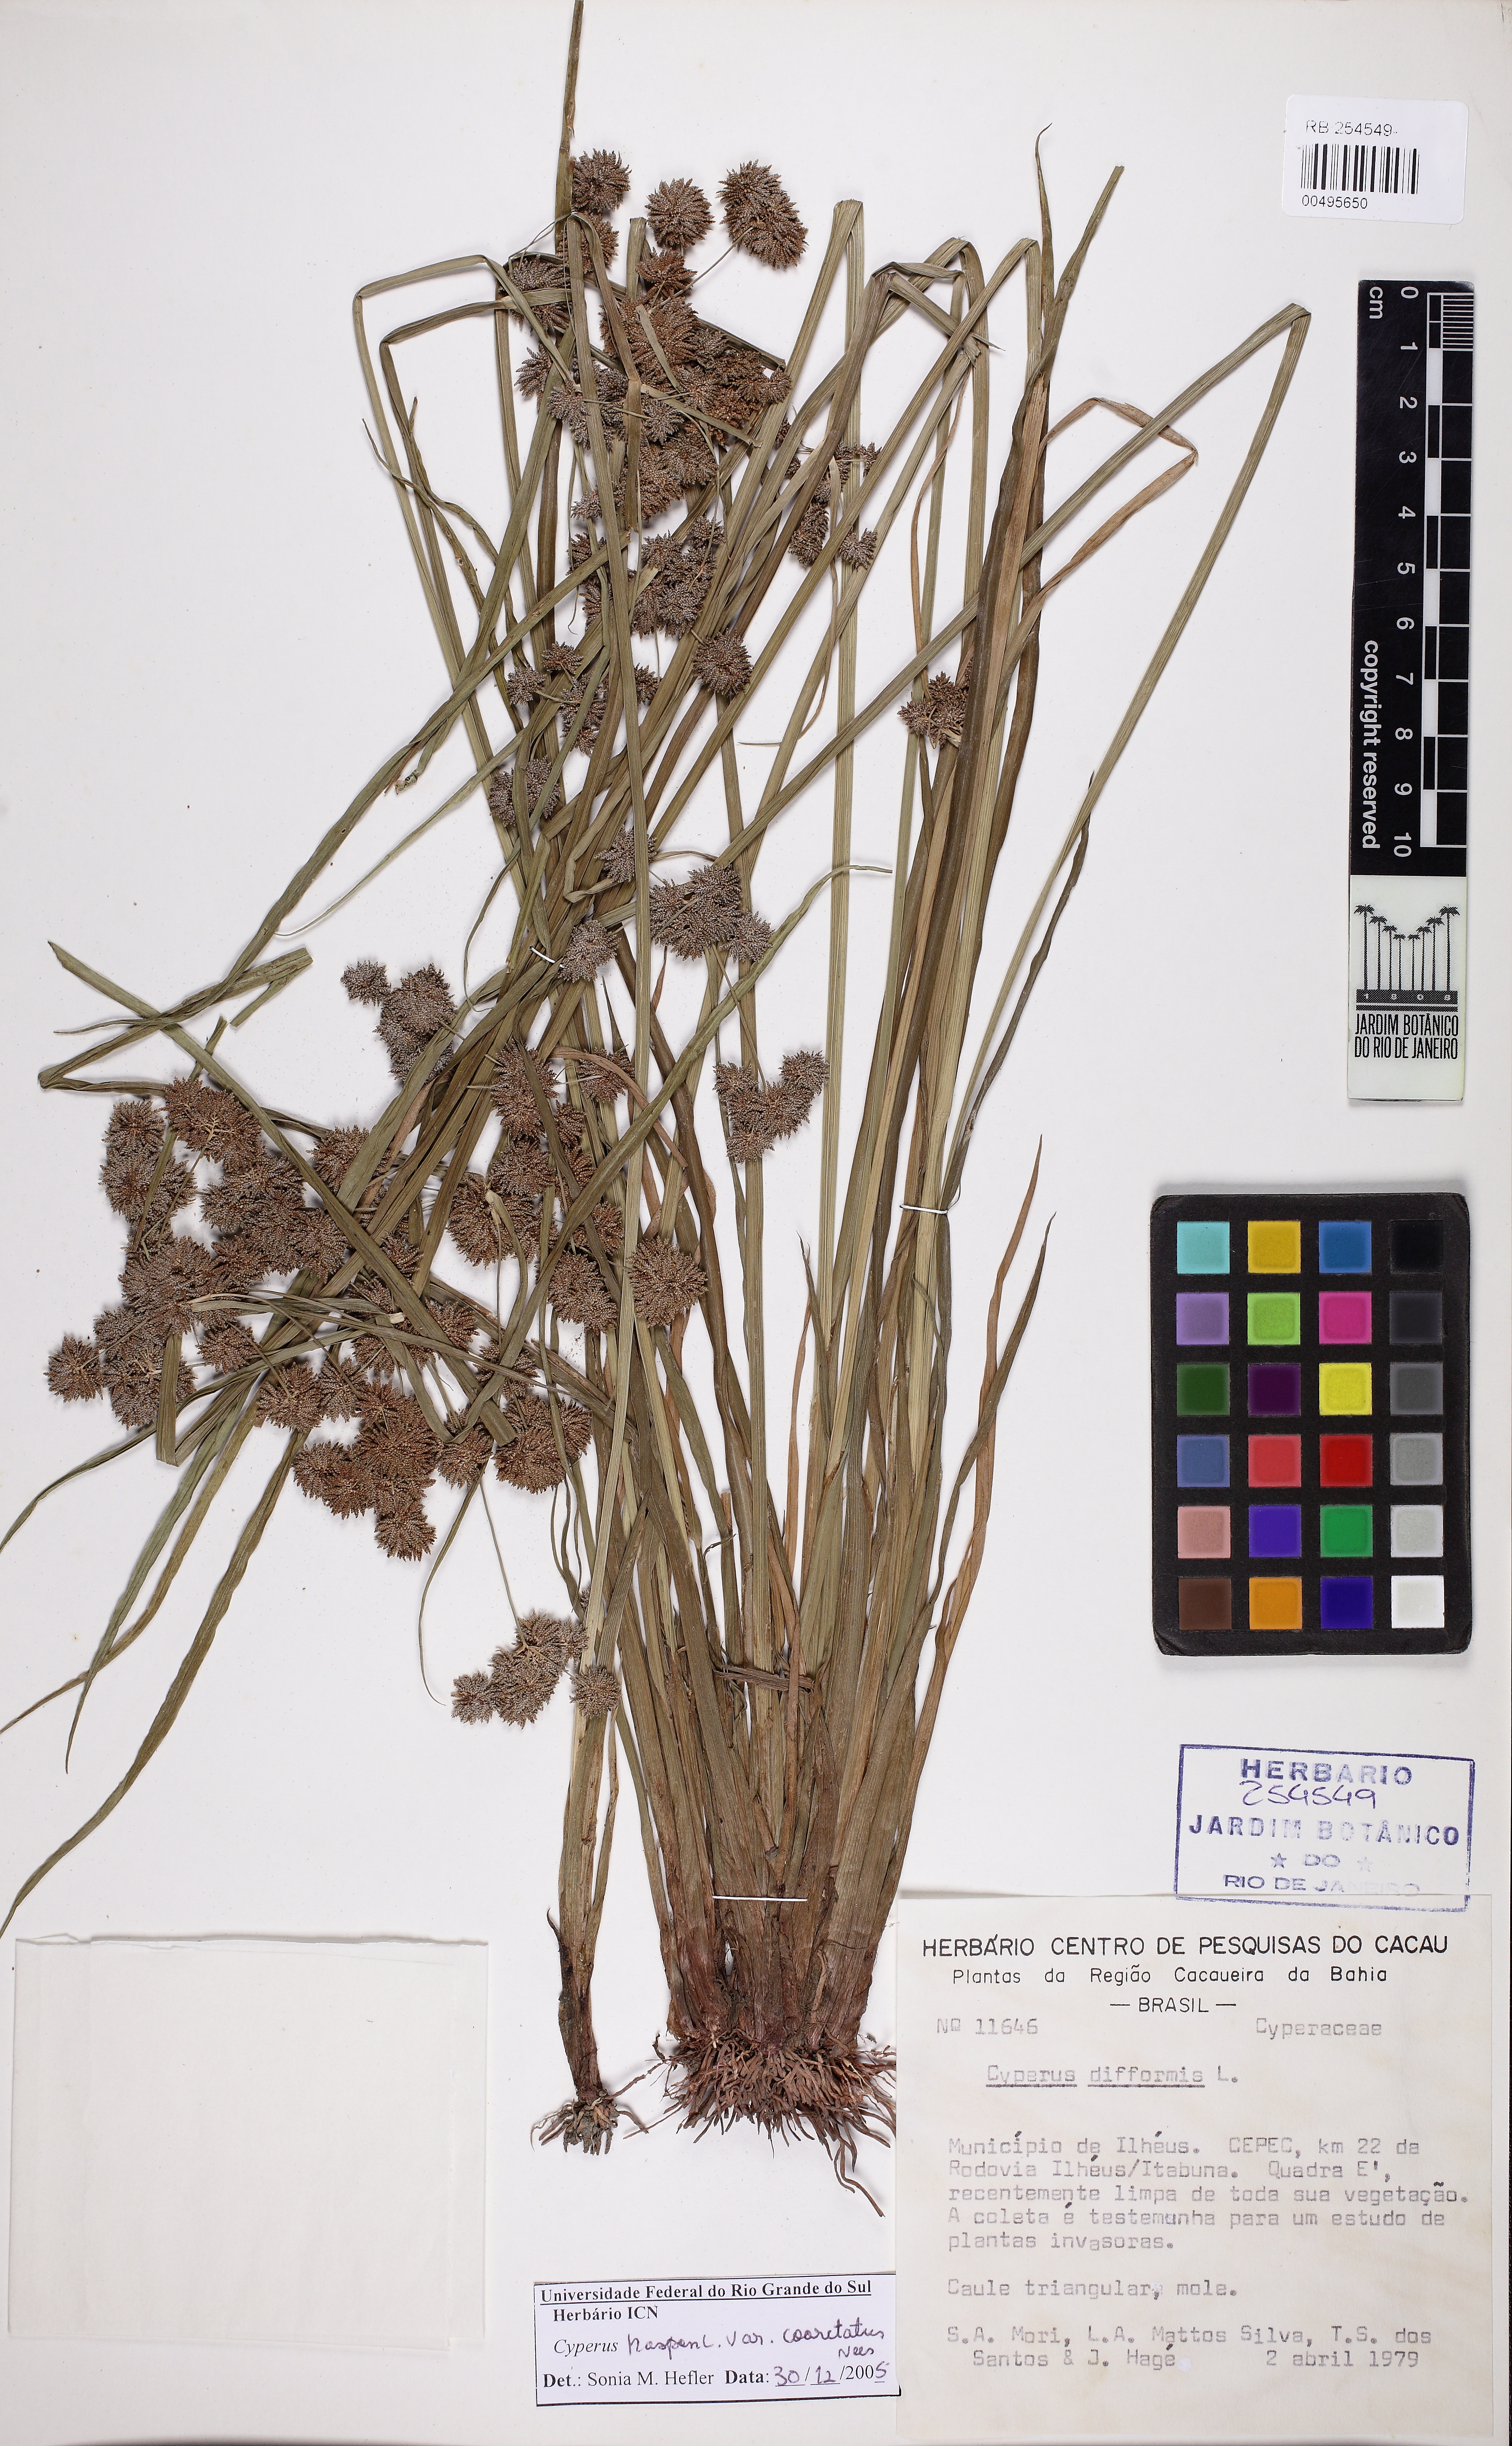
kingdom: Plantae
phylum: Tracheophyta
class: Liliopsida
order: Poales
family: Cyperaceae
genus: Cyperus
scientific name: Cyperus difformis
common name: Variable flatsedge
